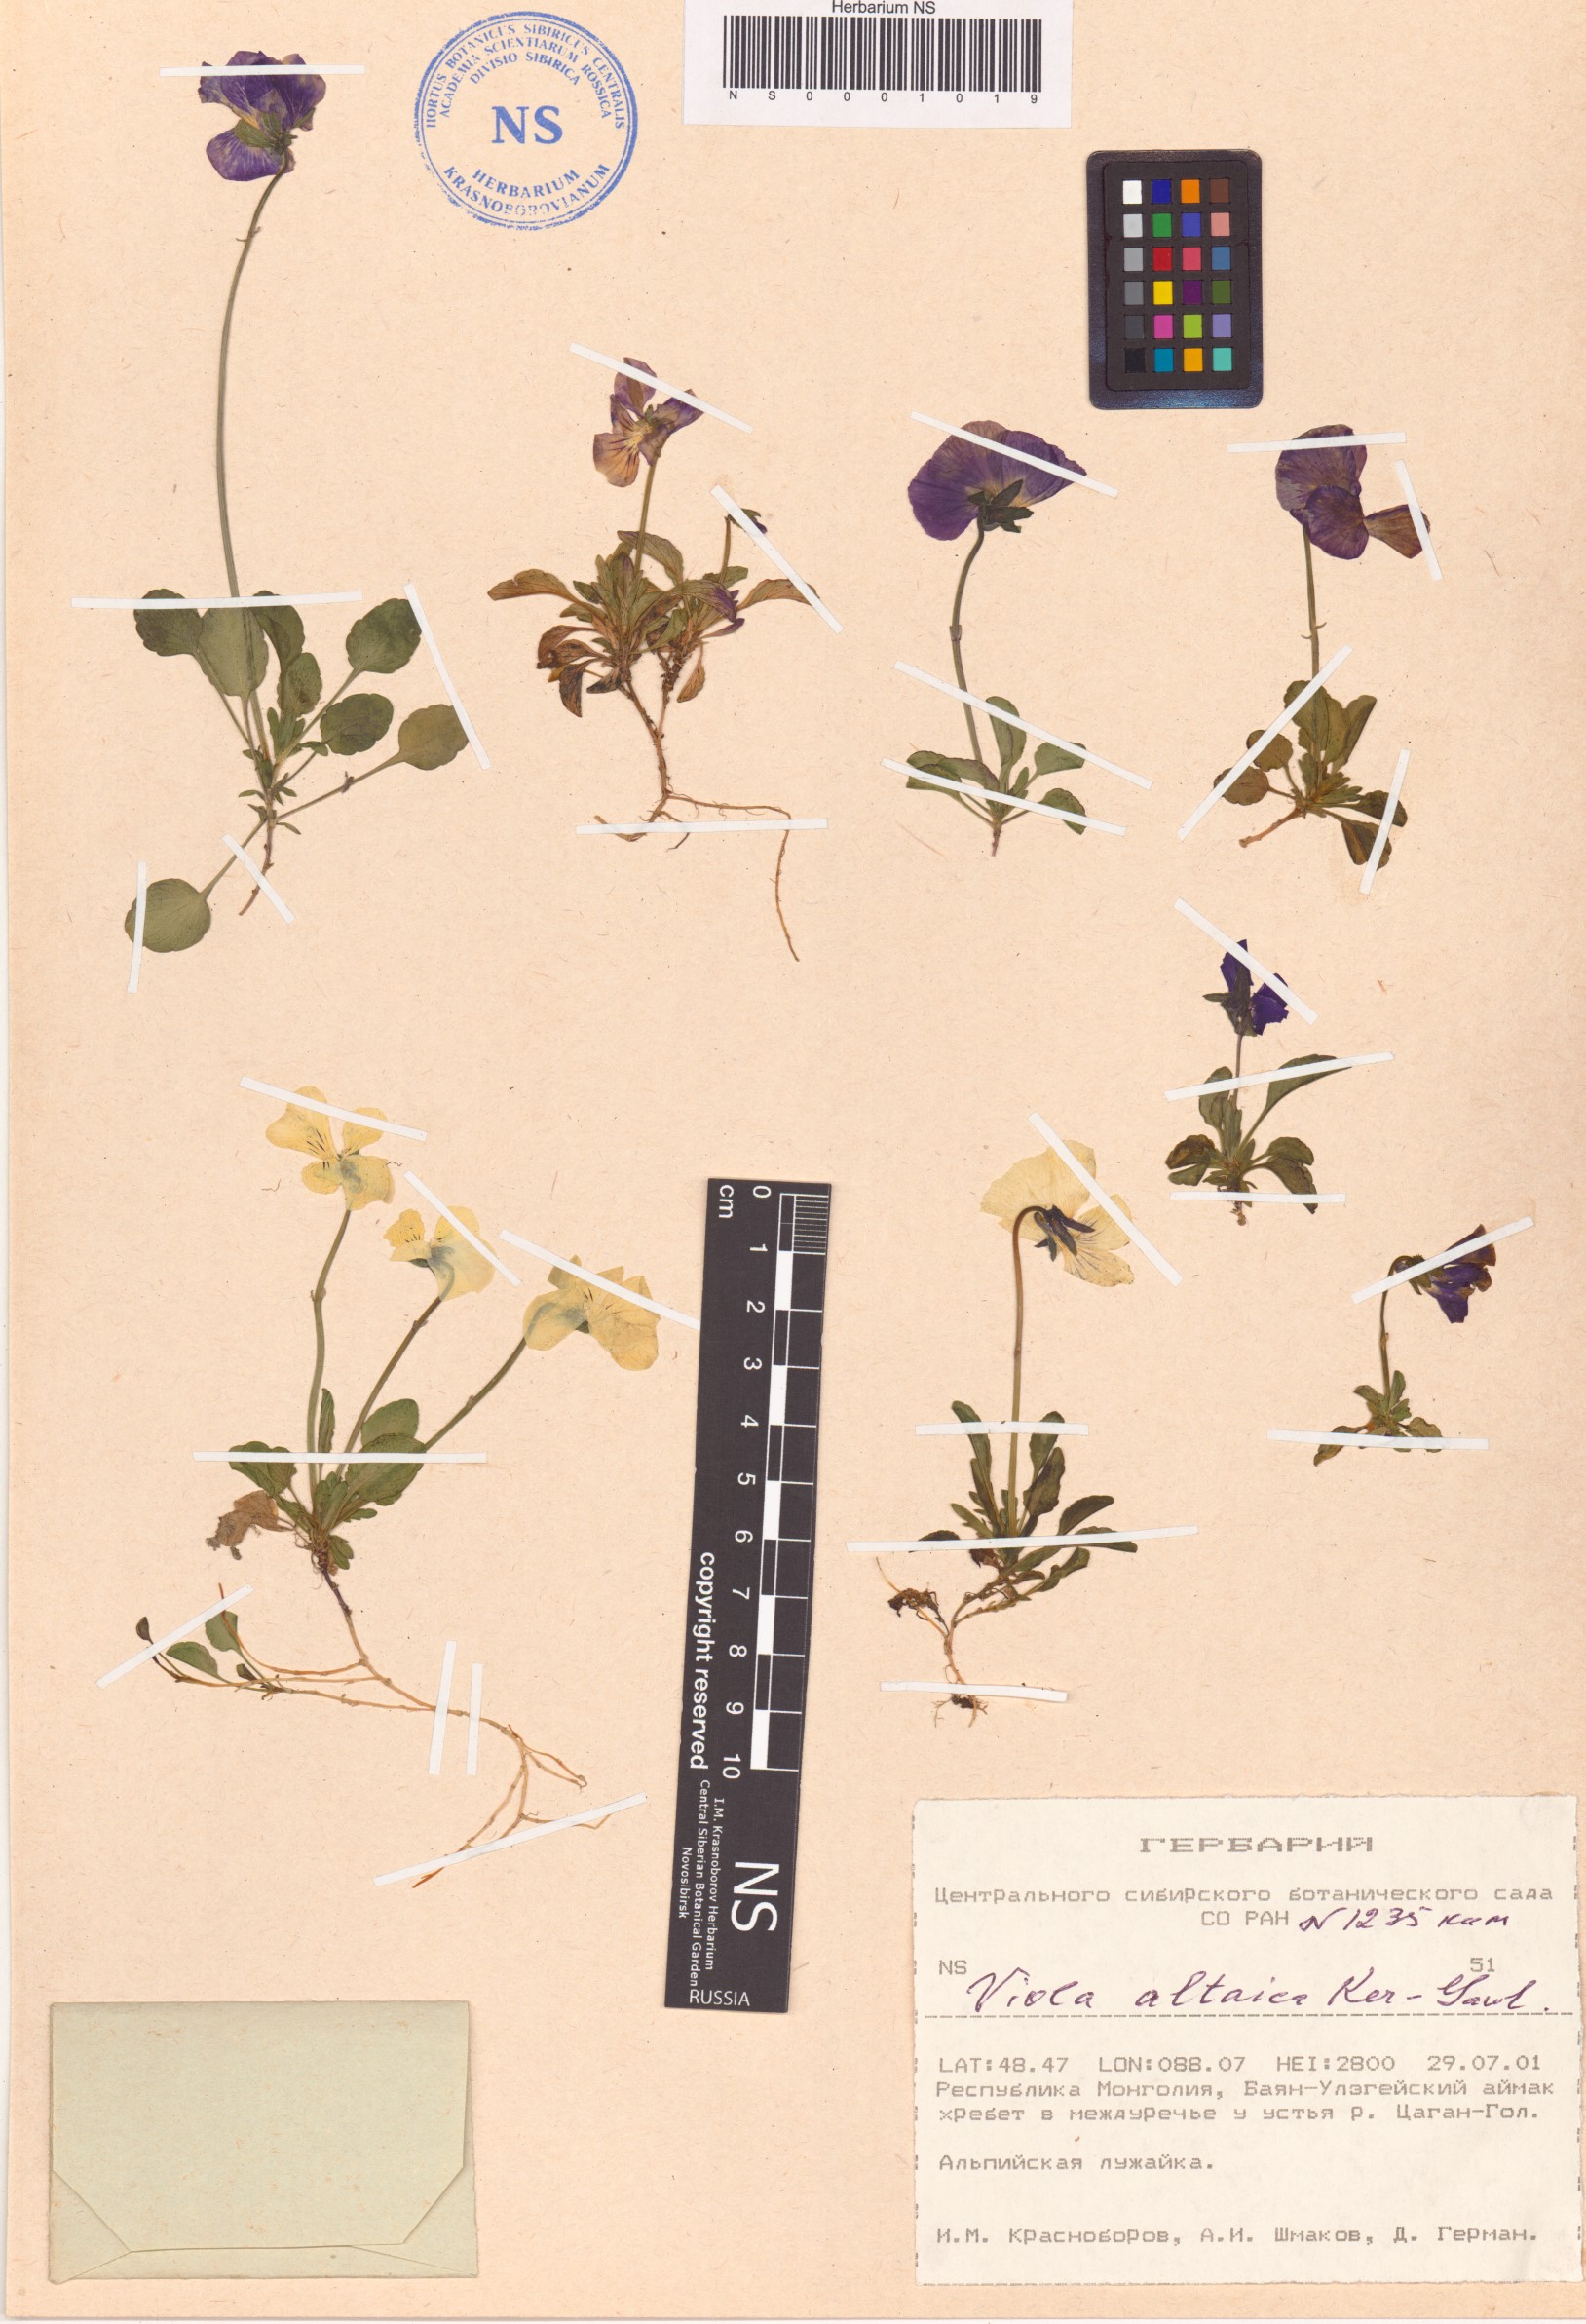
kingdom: Plantae
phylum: Tracheophyta
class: Magnoliopsida
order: Malpighiales
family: Violaceae
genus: Viola
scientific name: Viola altaica
